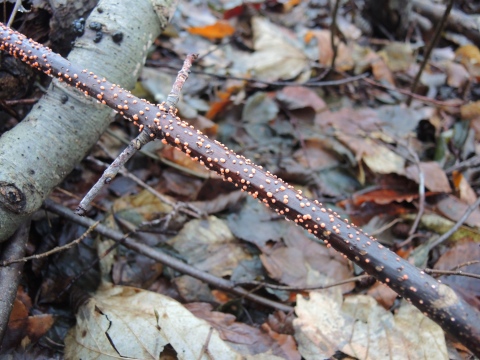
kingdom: Fungi
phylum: Ascomycota
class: Sordariomycetes
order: Hypocreales
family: Nectriaceae
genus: Nectria
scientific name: Nectria cinnabarina
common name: almindelig cinnobersvamp
